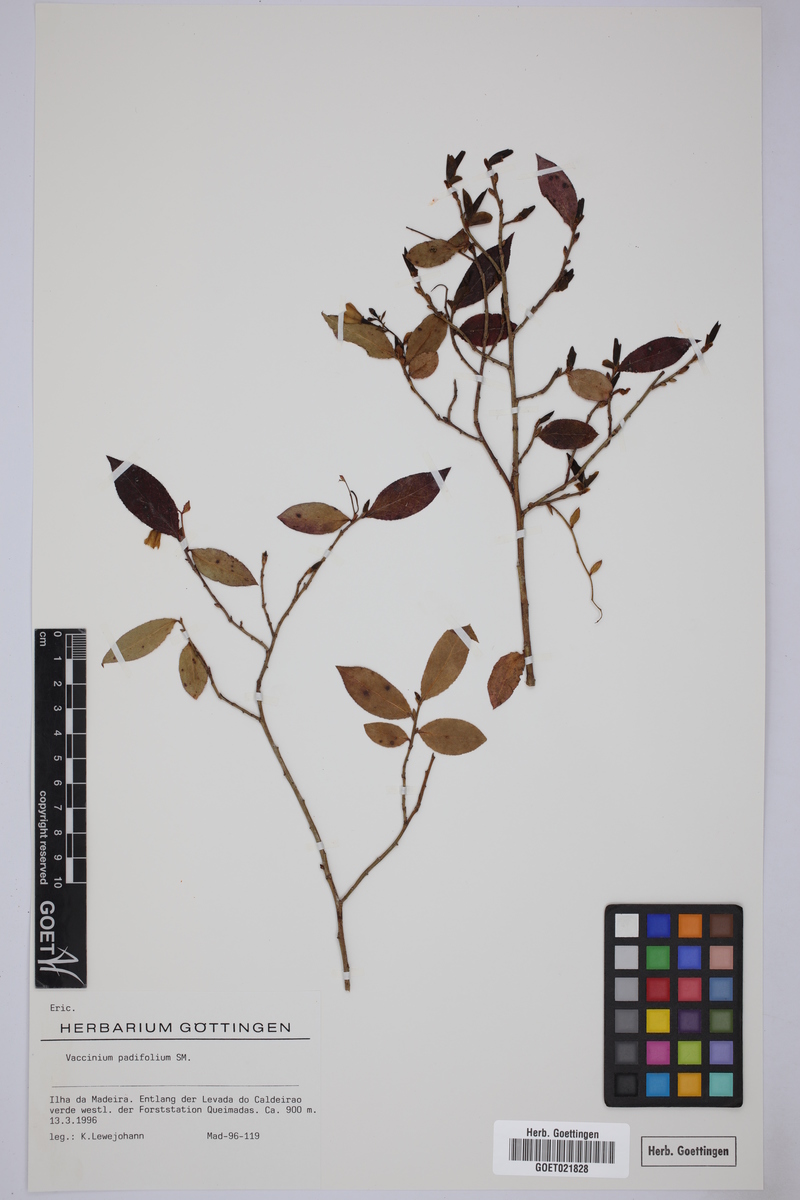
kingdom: Plantae
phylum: Tracheophyta
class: Magnoliopsida
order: Ericales
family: Ericaceae
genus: Vaccinium
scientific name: Vaccinium padifolium
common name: Madeiran blueberry
